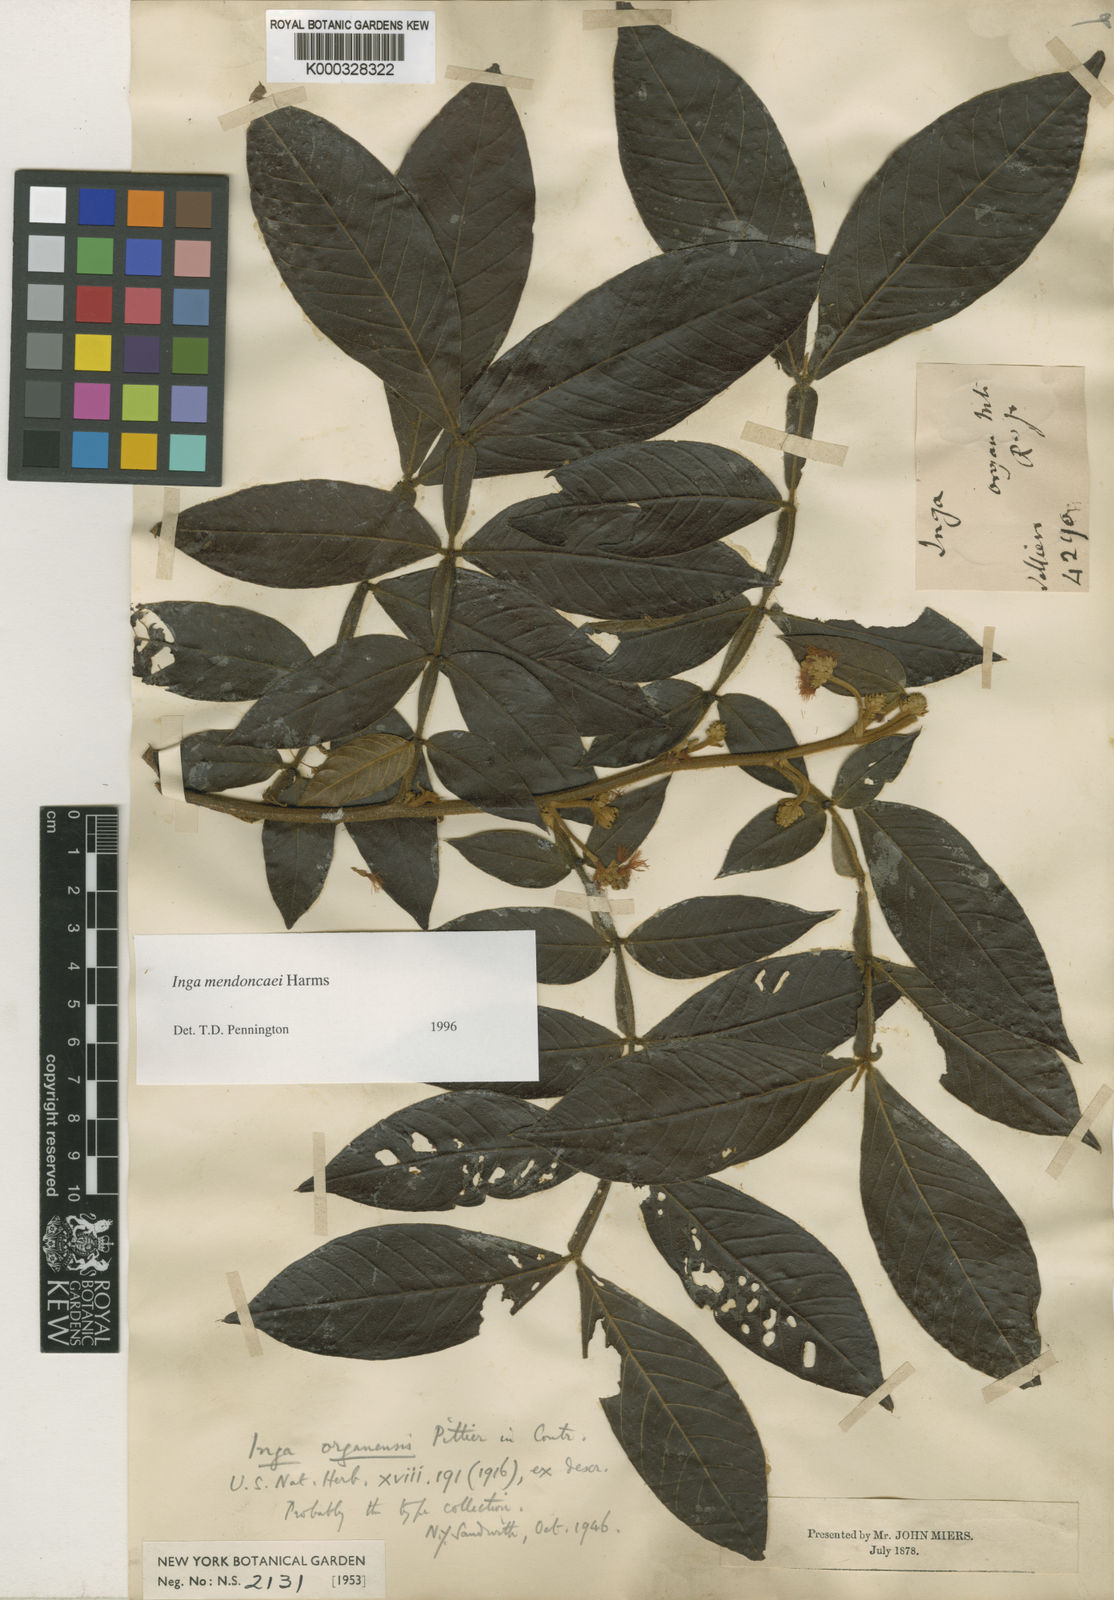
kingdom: Plantae
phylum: Tracheophyta
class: Magnoliopsida
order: Fabales
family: Fabaceae
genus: Inga
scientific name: Inga mendoncaei
